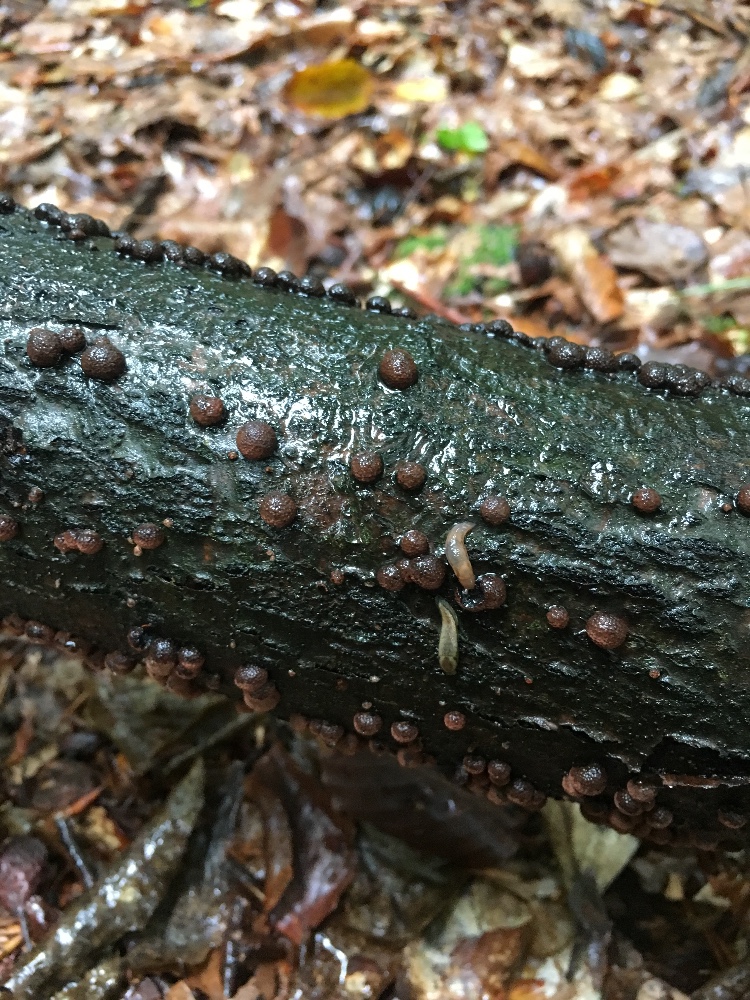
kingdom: Fungi
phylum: Ascomycota
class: Sordariomycetes
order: Xylariales
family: Hypoxylaceae
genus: Hypoxylon
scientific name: Hypoxylon fragiforme
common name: kuljordbær
